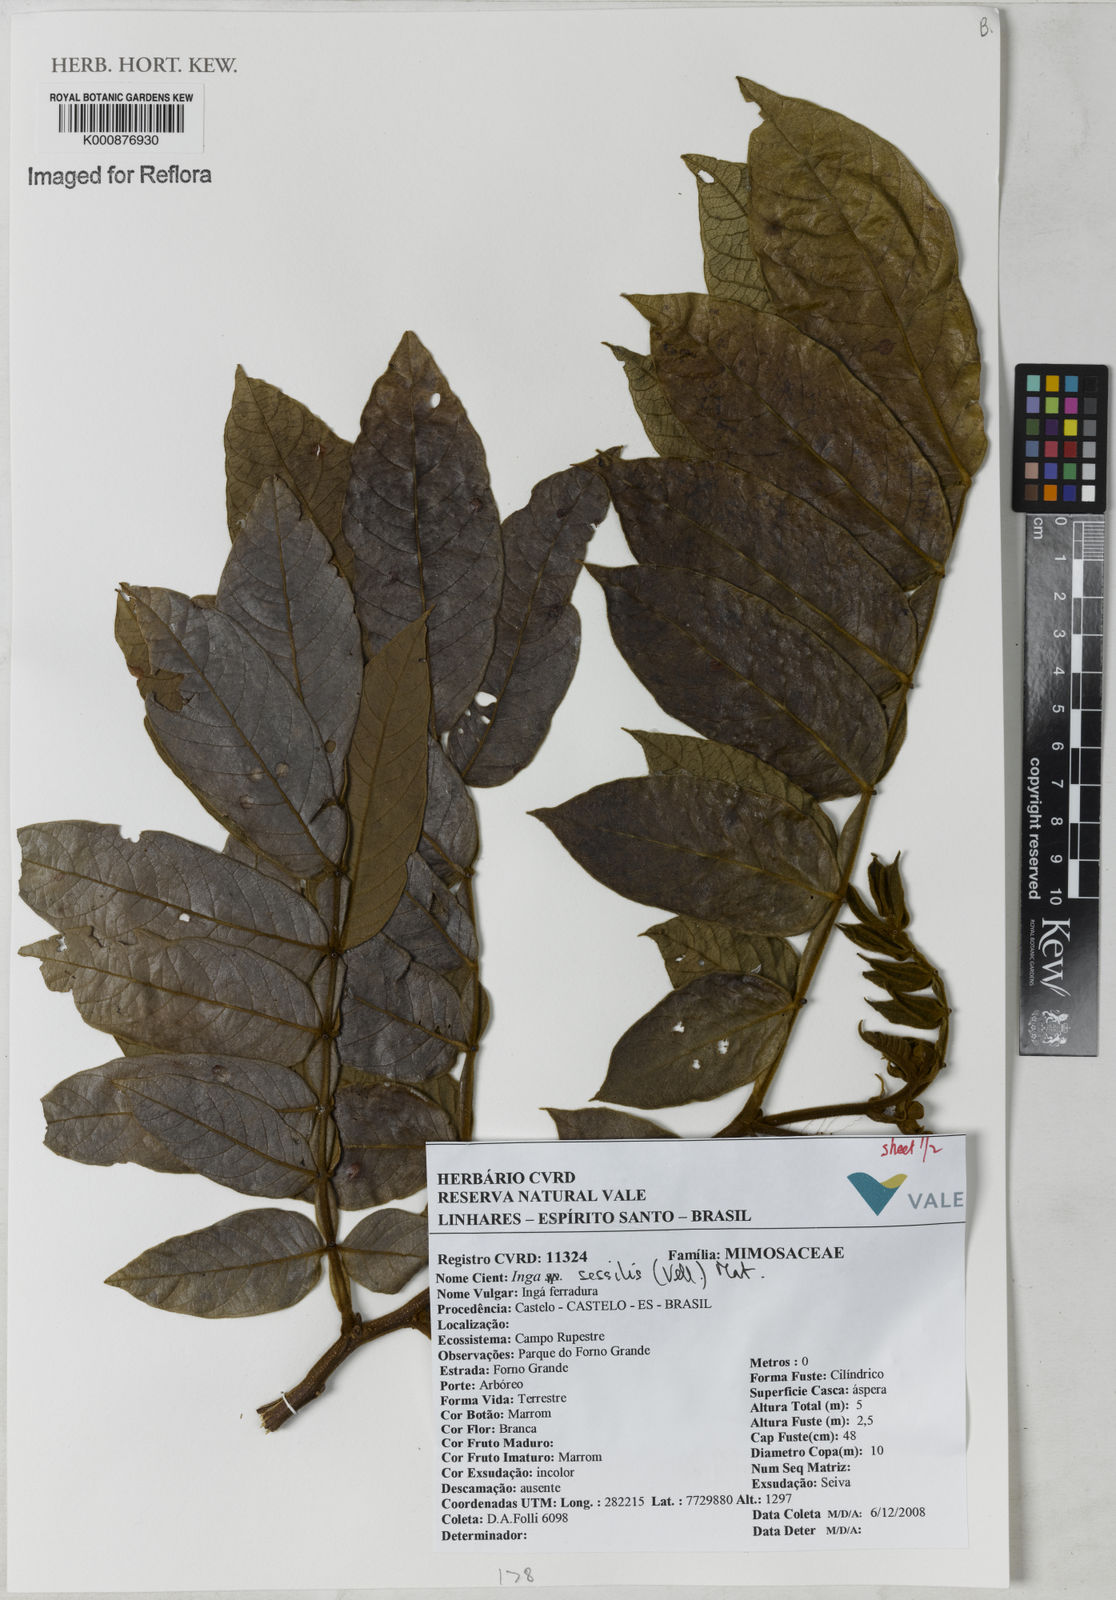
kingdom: Plantae
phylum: Tracheophyta
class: Magnoliopsida
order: Fabales
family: Fabaceae
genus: Inga
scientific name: Inga sessilis
